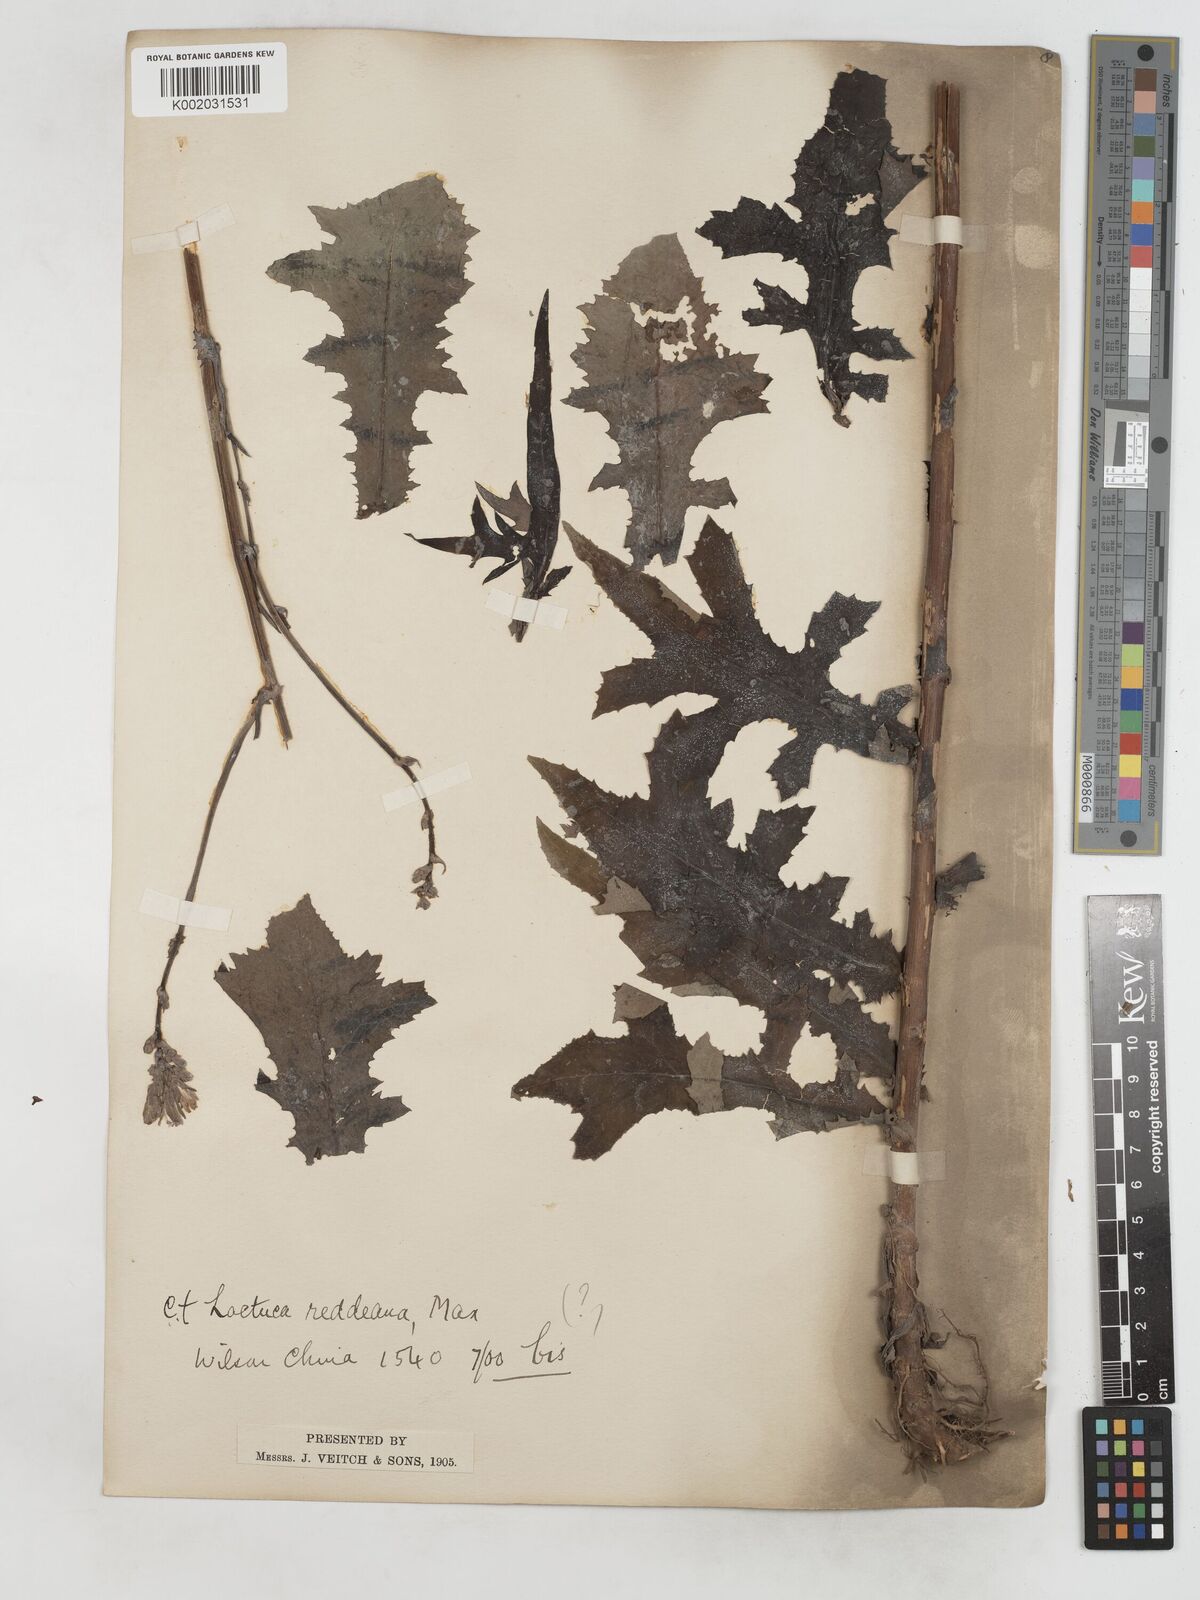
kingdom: Plantae
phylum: Tracheophyta
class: Magnoliopsida
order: Asterales
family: Asteraceae
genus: Lactuca
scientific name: Lactuca formosana
